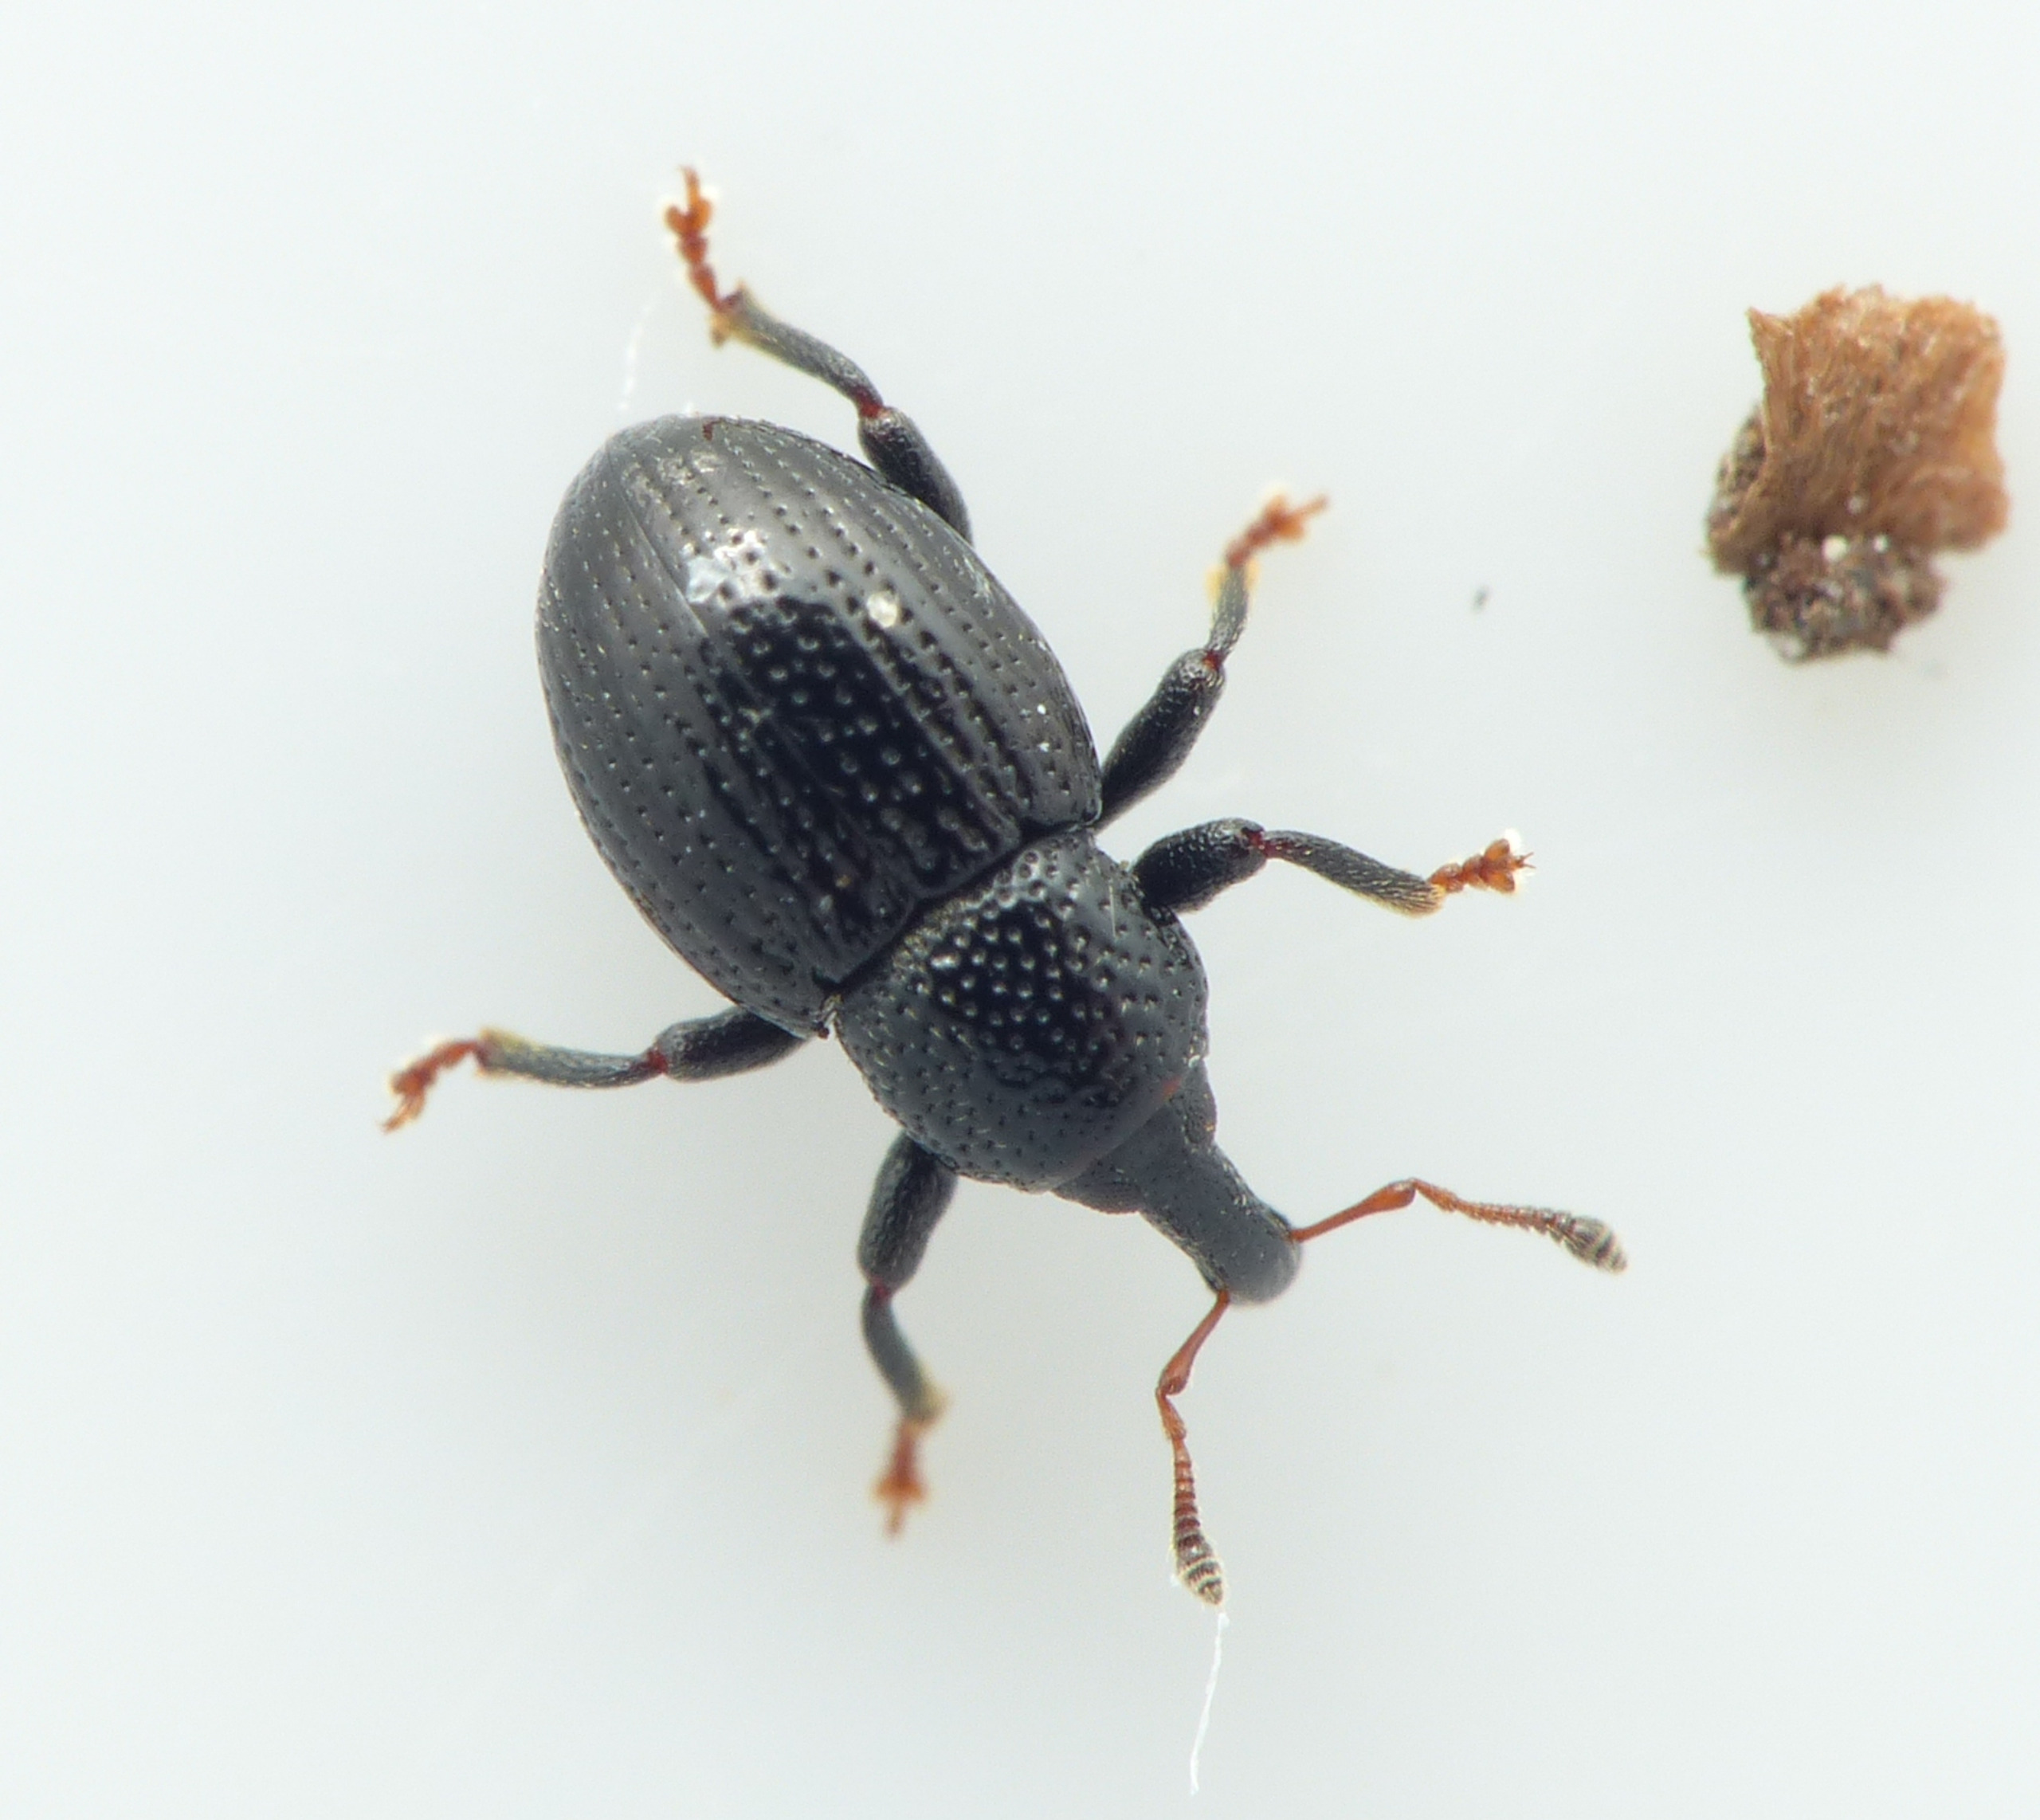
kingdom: Animalia
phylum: Arthropoda
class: Insecta
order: Coleoptera
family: Curculionidae
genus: Leiosoma
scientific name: Leiosoma deflexum
